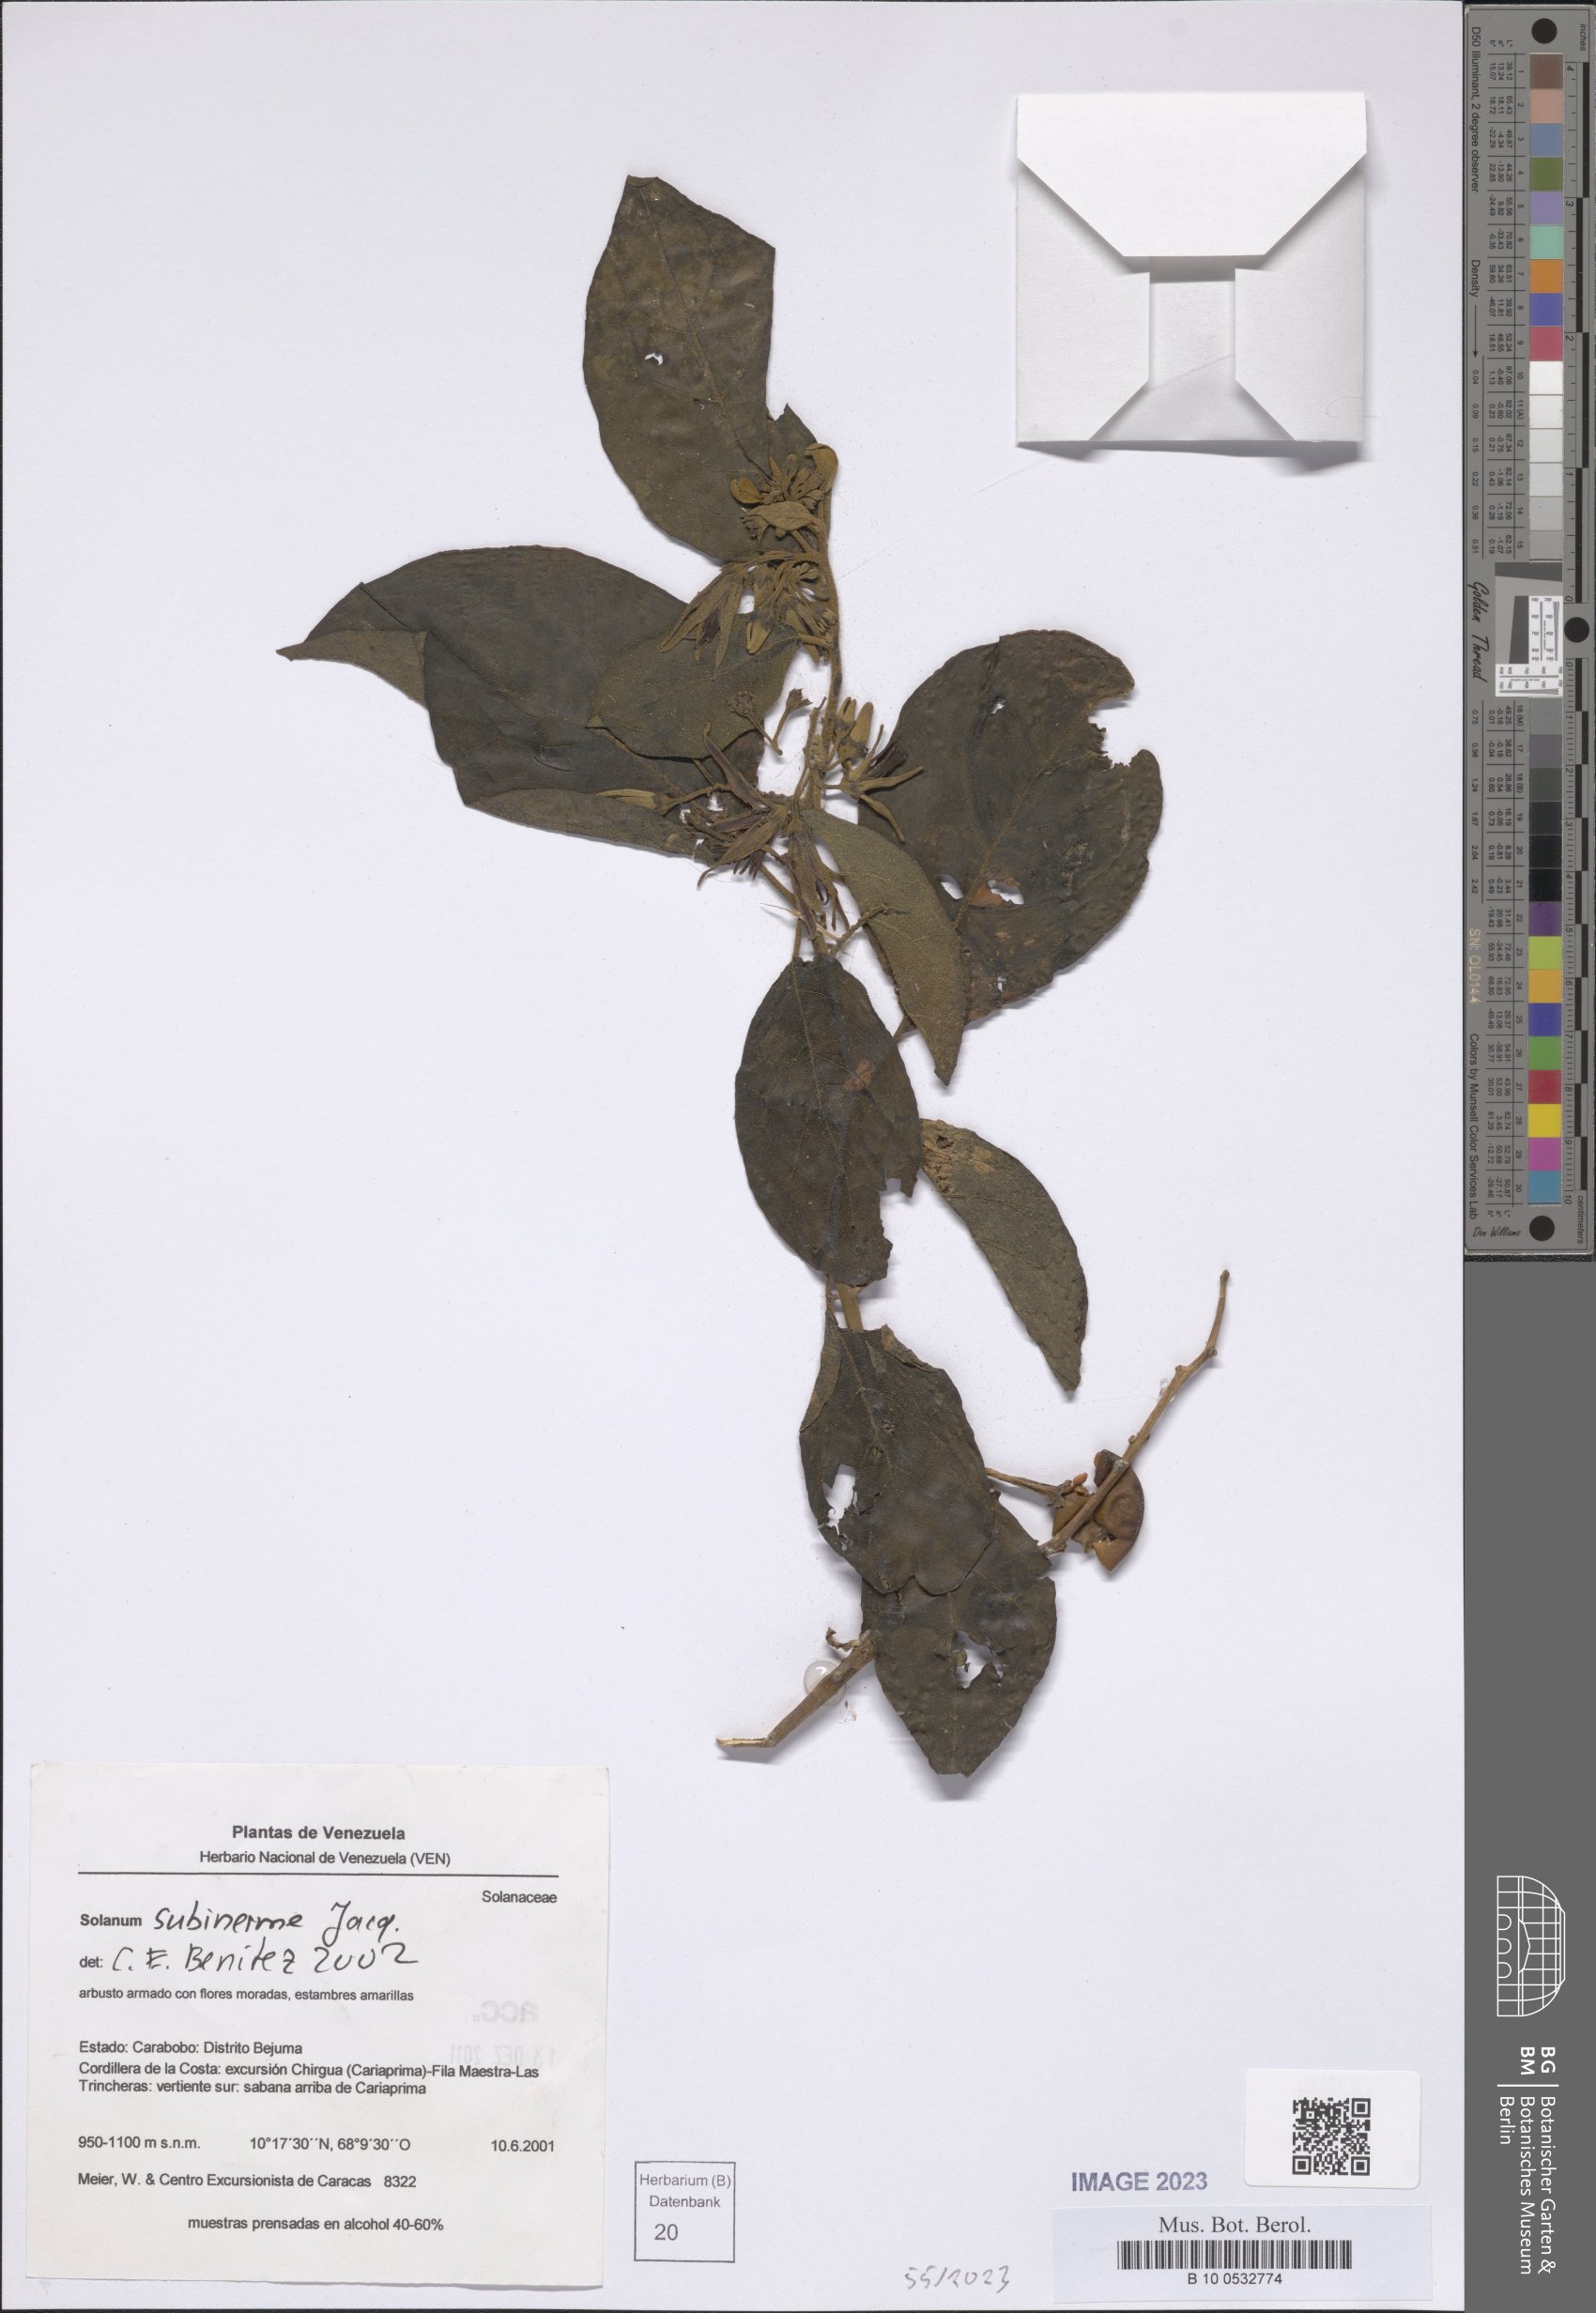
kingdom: Plantae
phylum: Tracheophyta
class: Magnoliopsida
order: Solanales
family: Solanaceae
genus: Solanum
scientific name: Solanum subinerme
